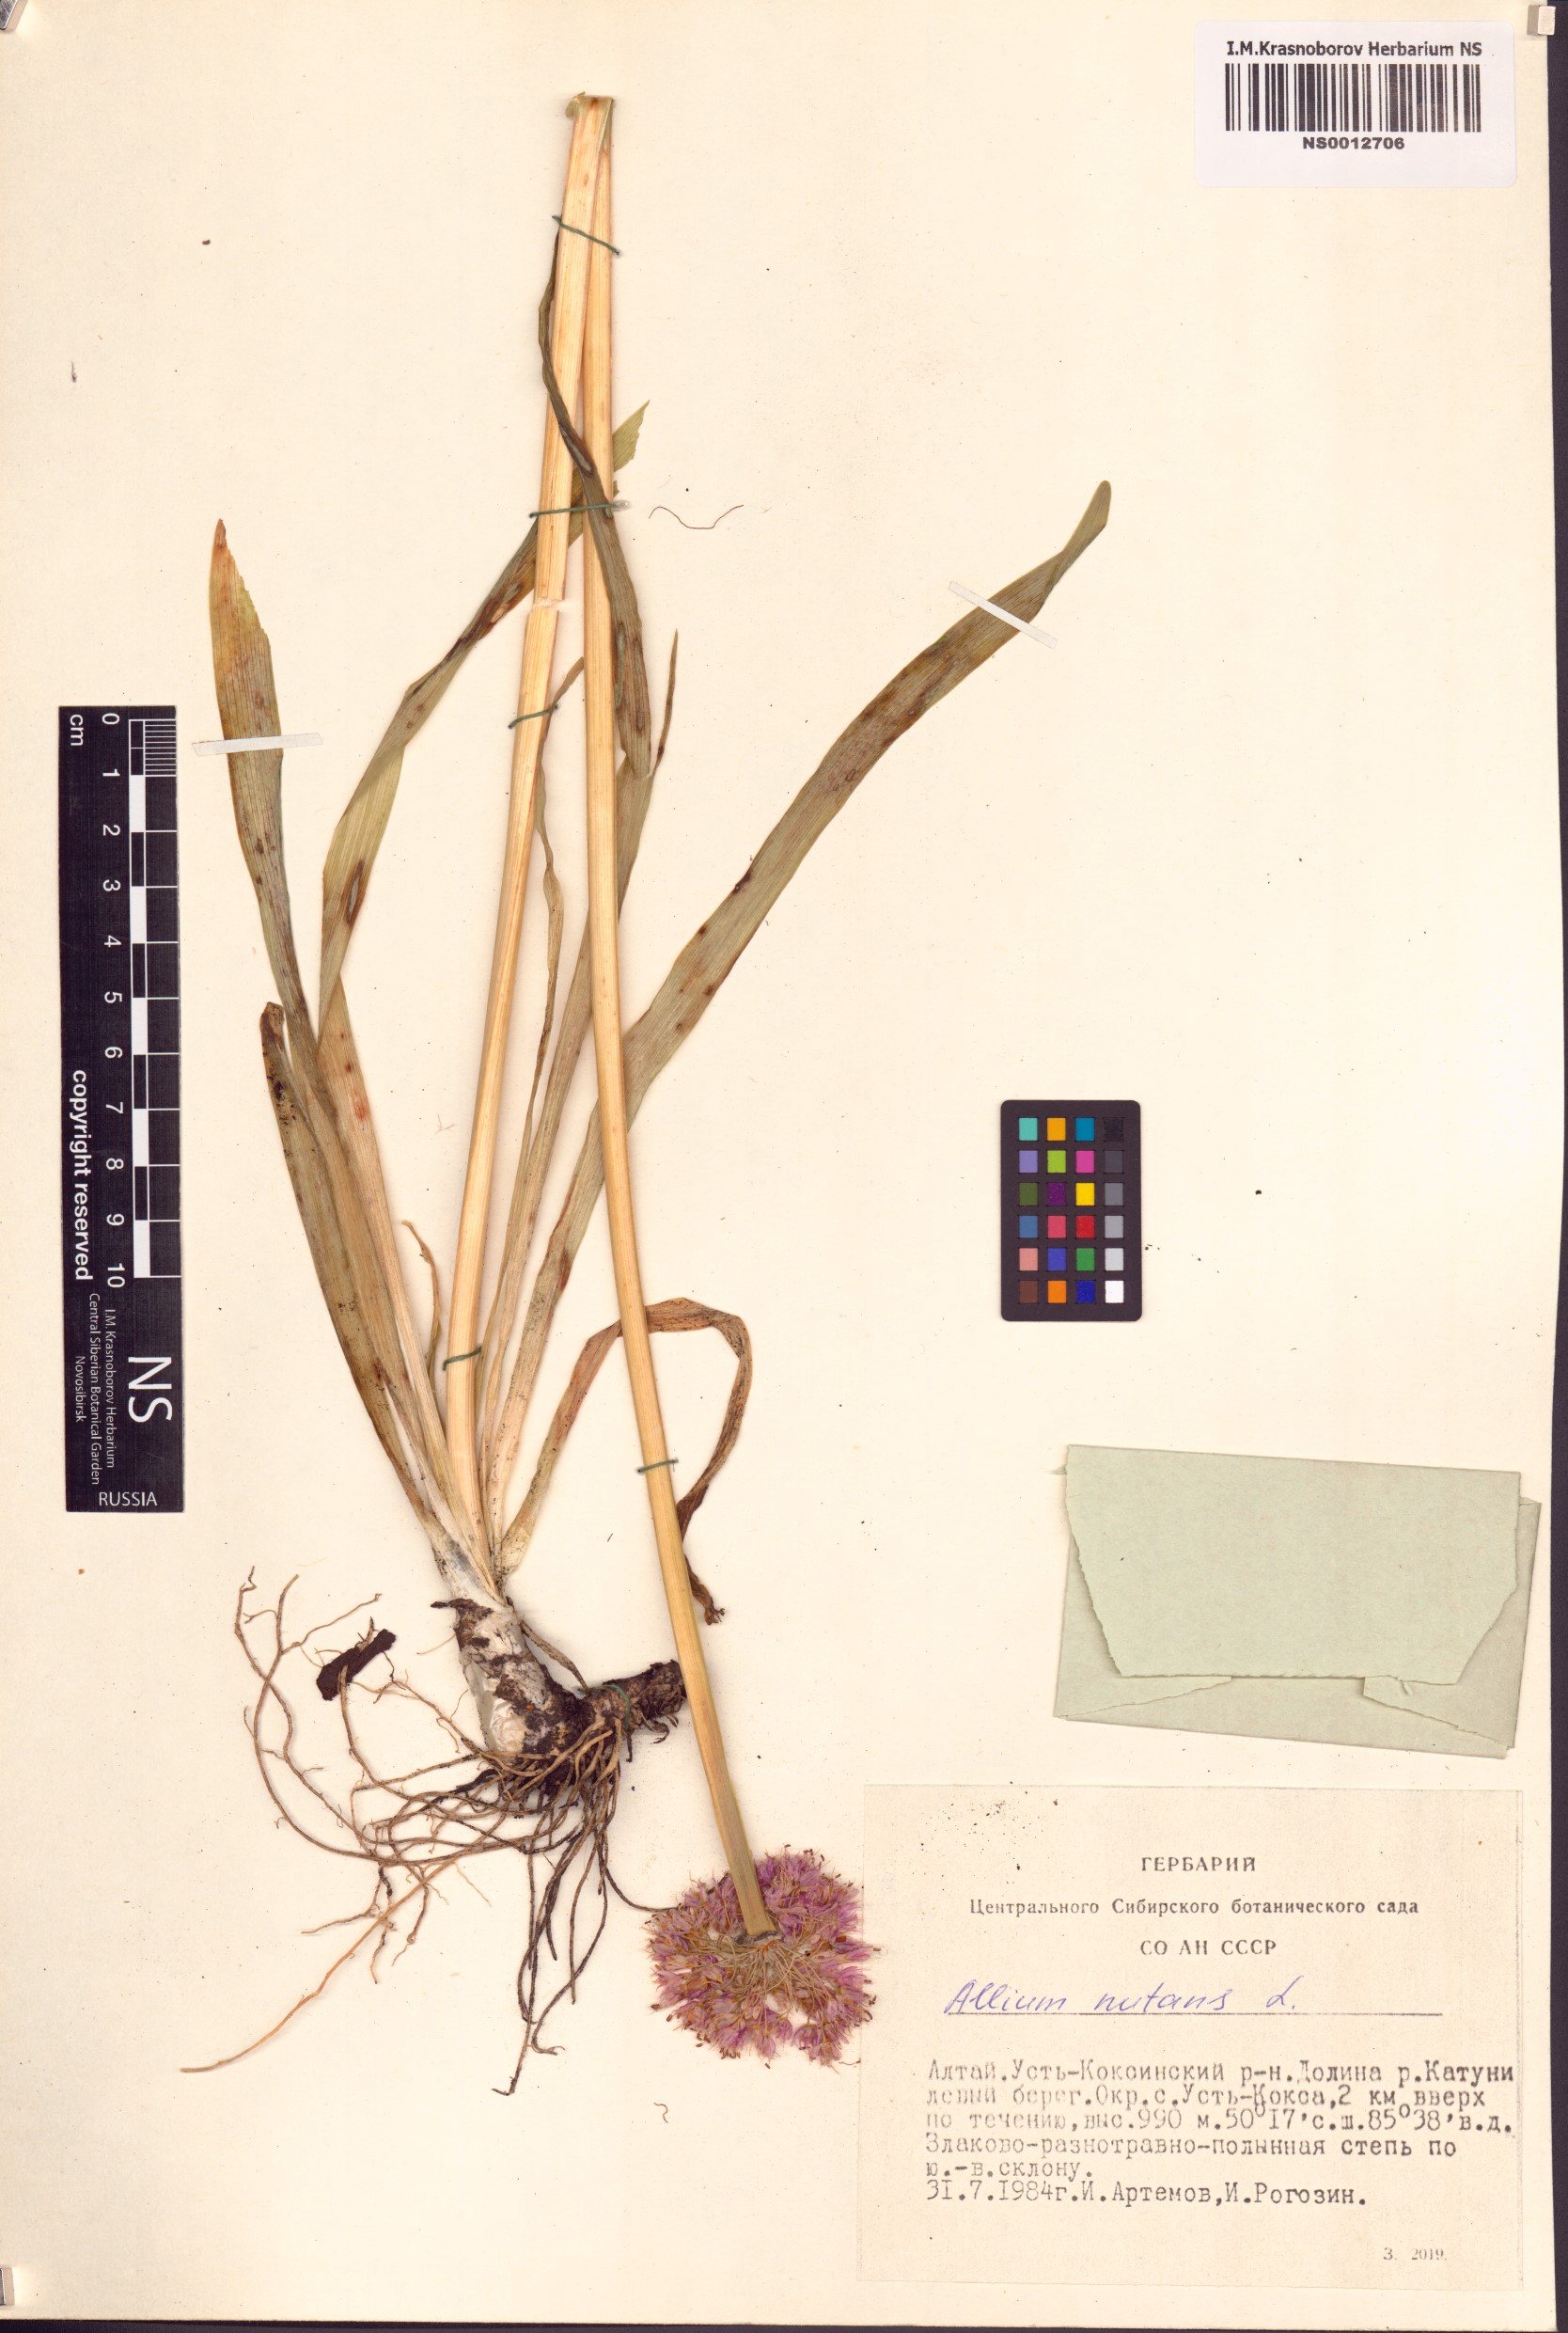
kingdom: Plantae
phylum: Tracheophyta
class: Liliopsida
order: Asparagales
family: Amaryllidaceae
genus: Allium
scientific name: Allium nutans
